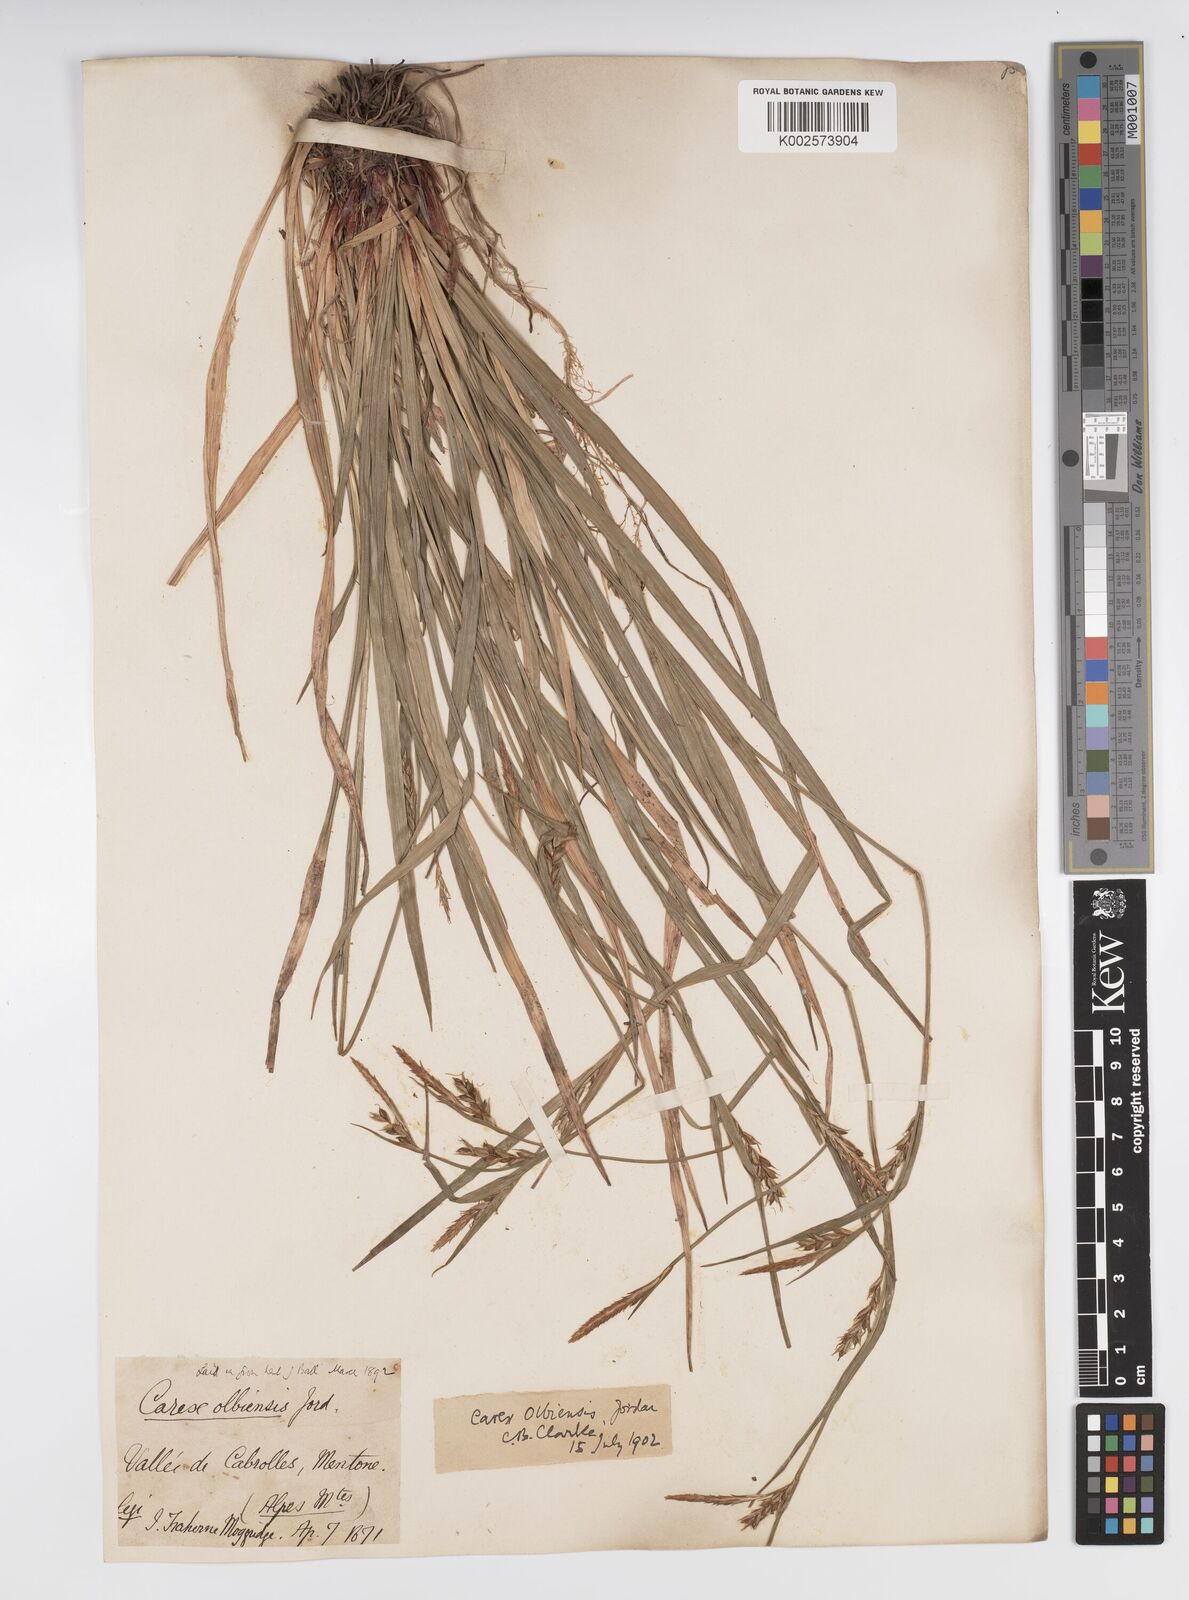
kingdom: Plantae
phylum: Tracheophyta
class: Liliopsida
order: Poales
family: Cyperaceae
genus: Carex
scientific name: Carex olbiensis
